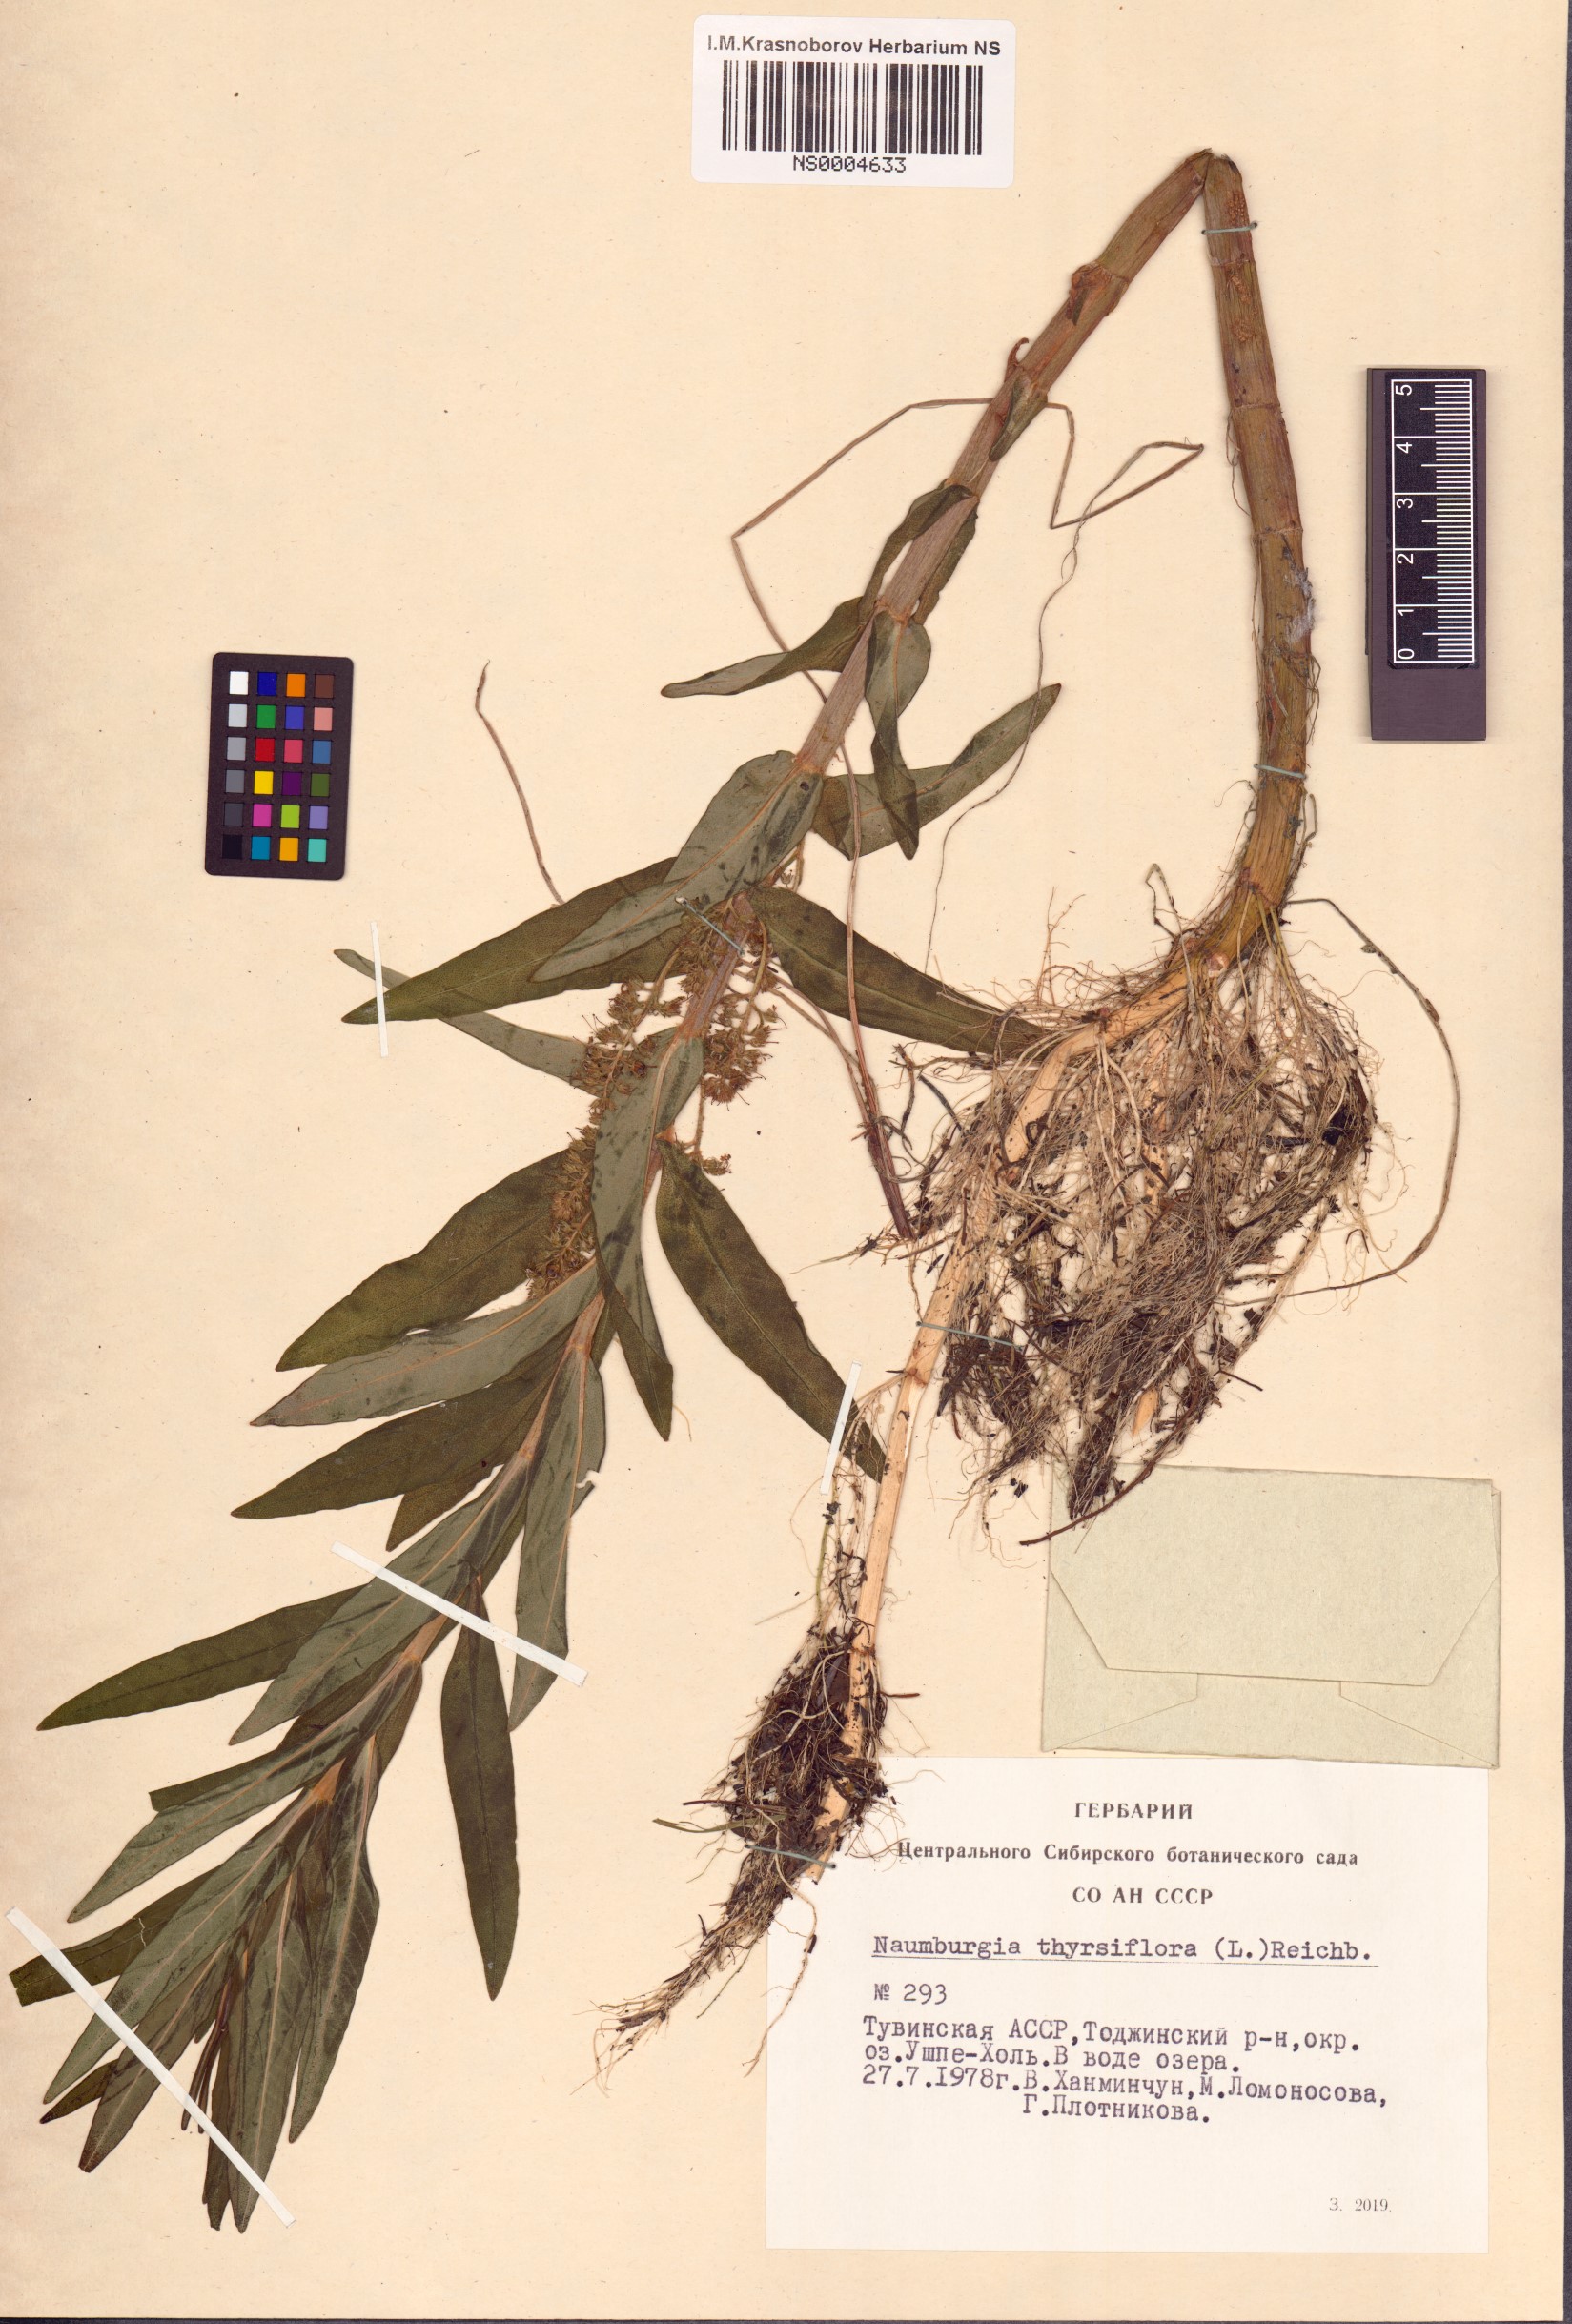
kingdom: Plantae
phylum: Tracheophyta
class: Magnoliopsida
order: Ericales
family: Primulaceae
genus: Lysimachia
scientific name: Lysimachia thyrsiflora
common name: Tufted loosestrife
